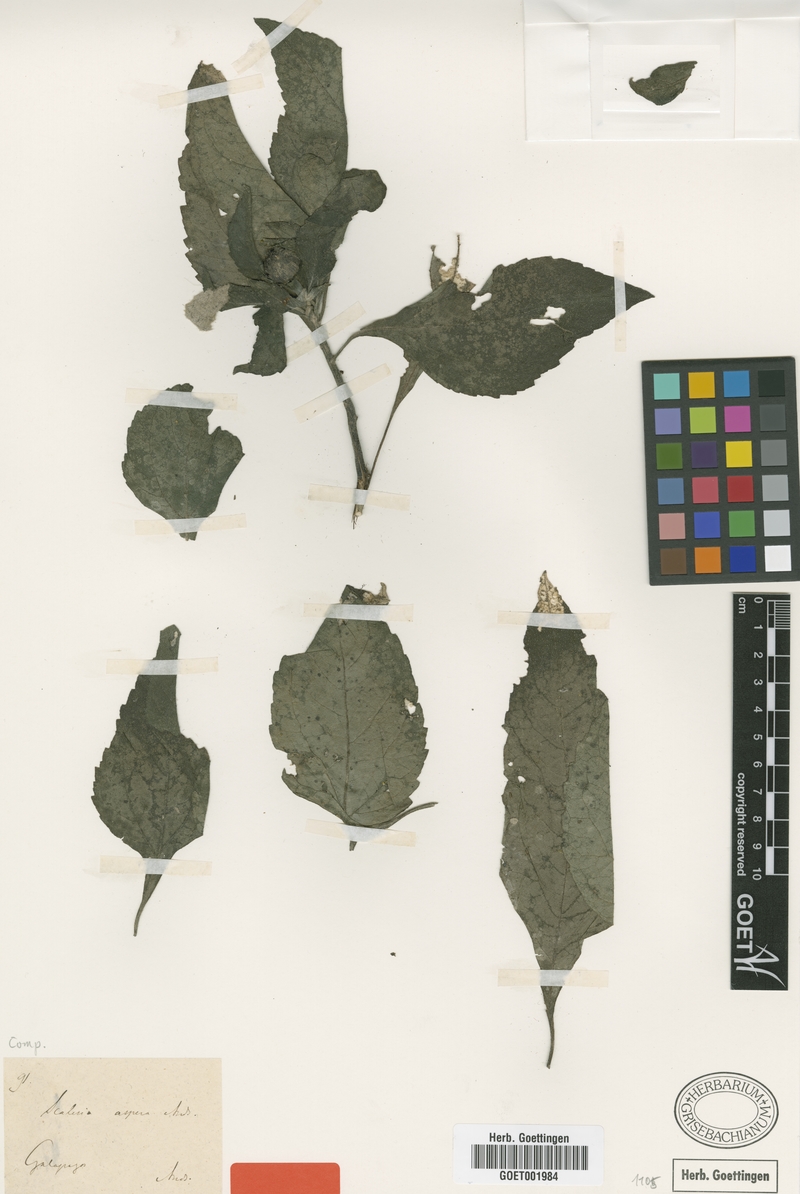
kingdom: Plantae
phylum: Tracheophyta
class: Magnoliopsida
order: Asterales
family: Asteraceae
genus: Scalesia
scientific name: Scalesia aspera
